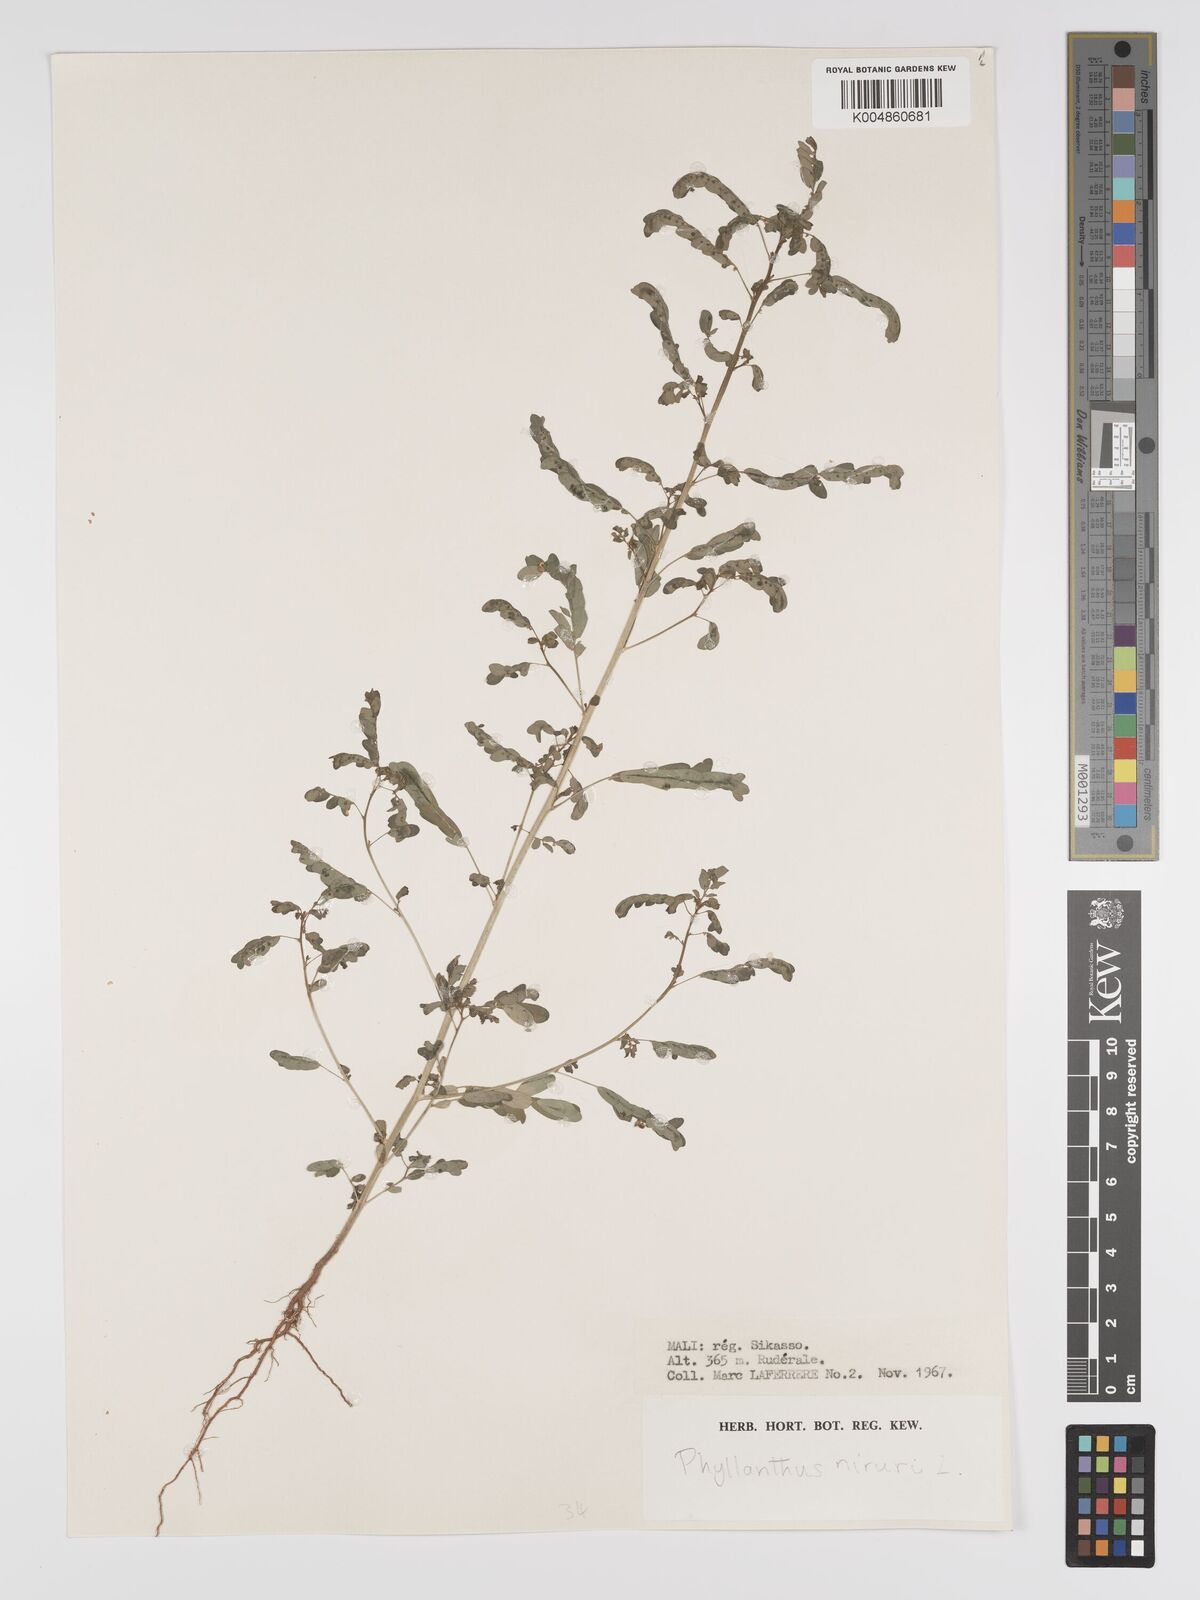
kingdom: Plantae
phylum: Tracheophyta
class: Magnoliopsida
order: Malpighiales
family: Phyllanthaceae
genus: Phyllanthus
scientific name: Phyllanthus fraternus
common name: Gulf leaf-flower
